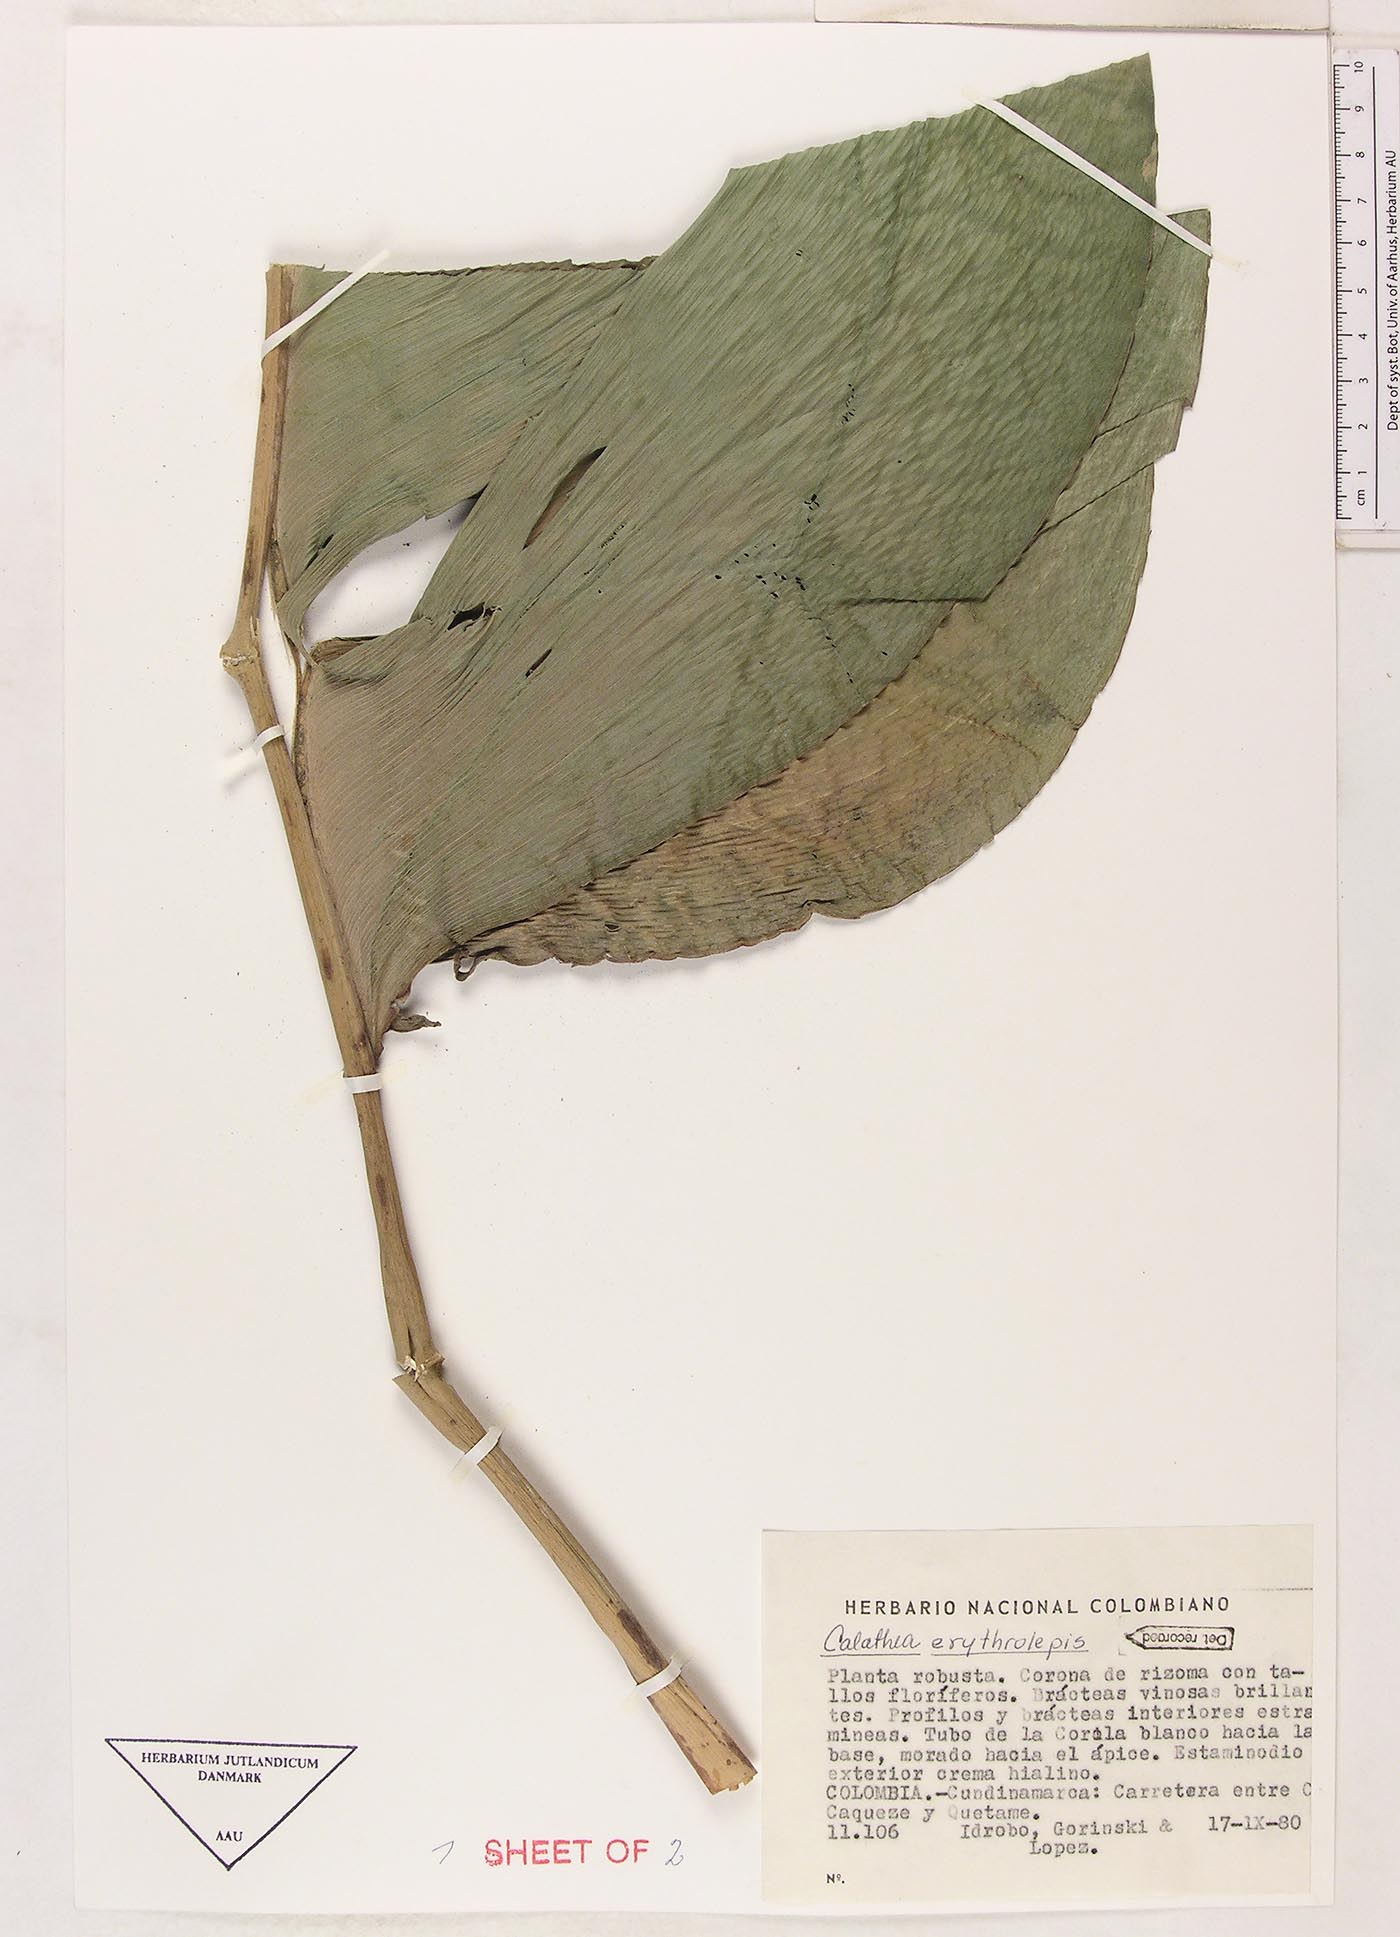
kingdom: Plantae
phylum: Tracheophyta
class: Liliopsida
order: Zingiberales
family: Marantaceae
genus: Calathea
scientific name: Calathea erythrolepis
